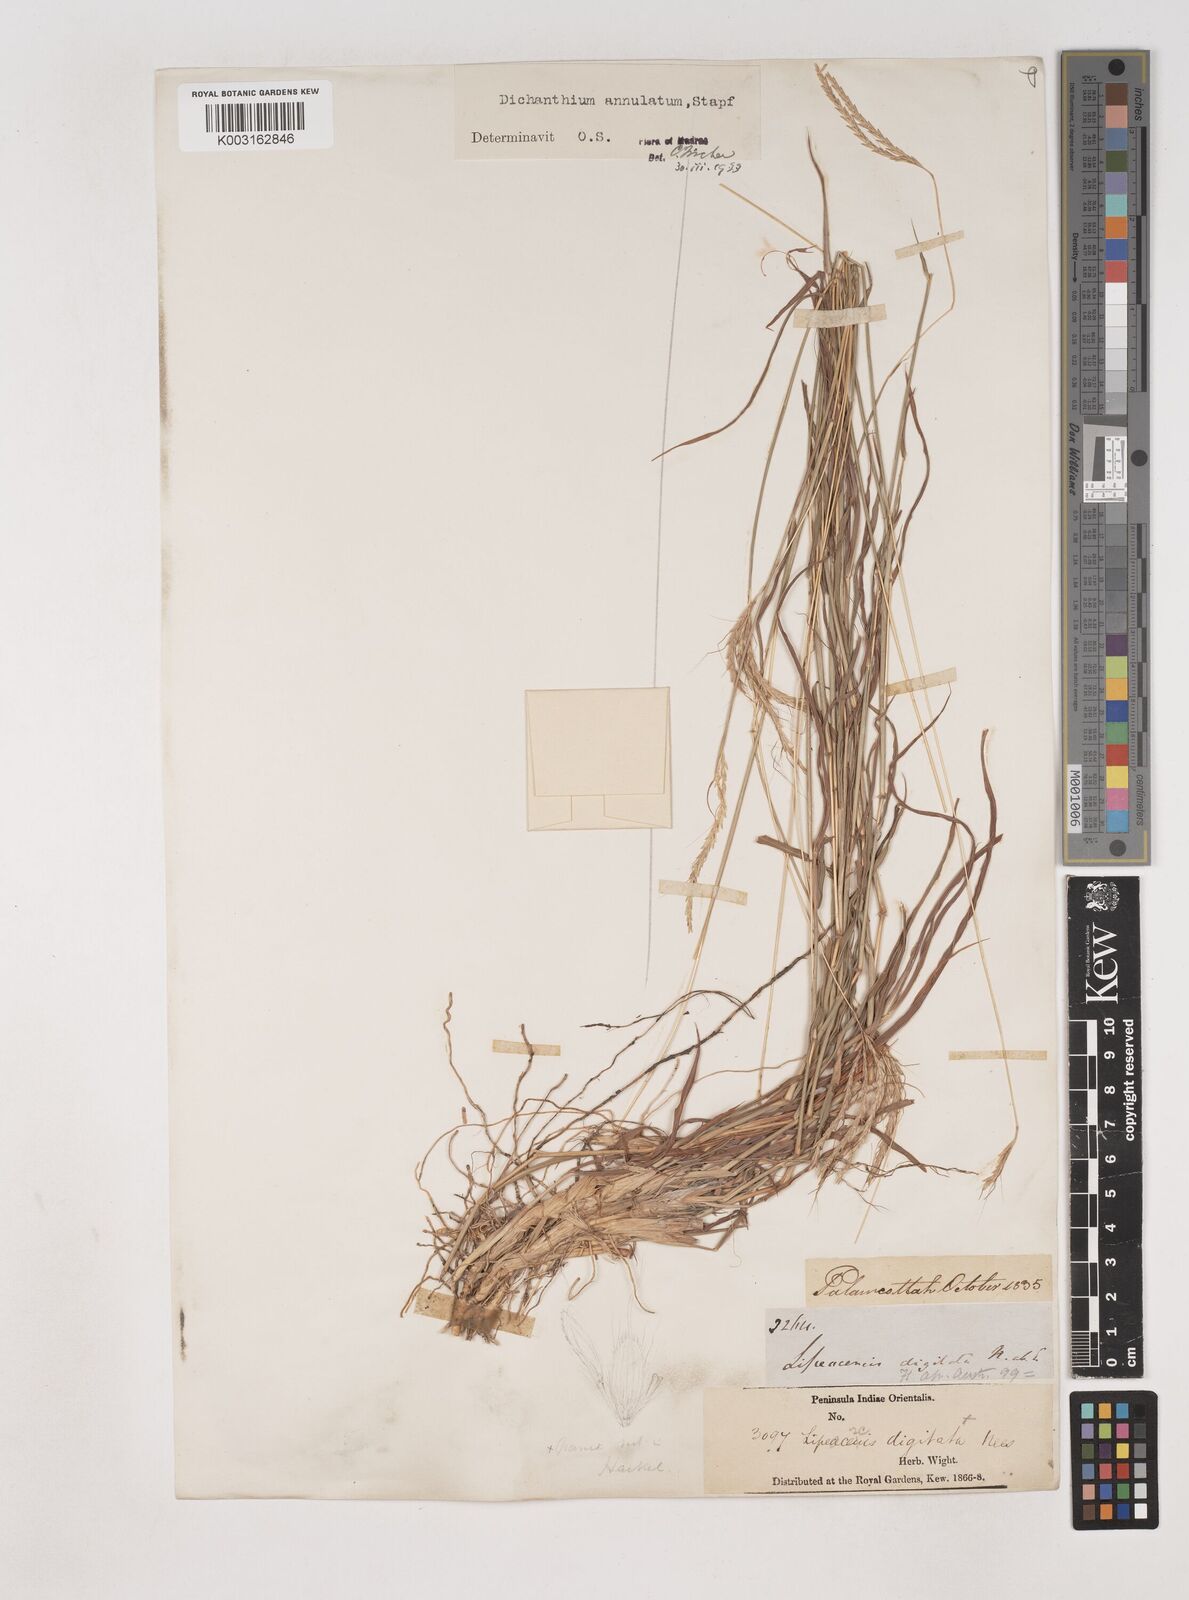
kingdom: Plantae
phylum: Tracheophyta
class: Liliopsida
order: Poales
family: Poaceae
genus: Dichanthium
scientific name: Dichanthium annulatum
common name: Kleberg's bluestem
